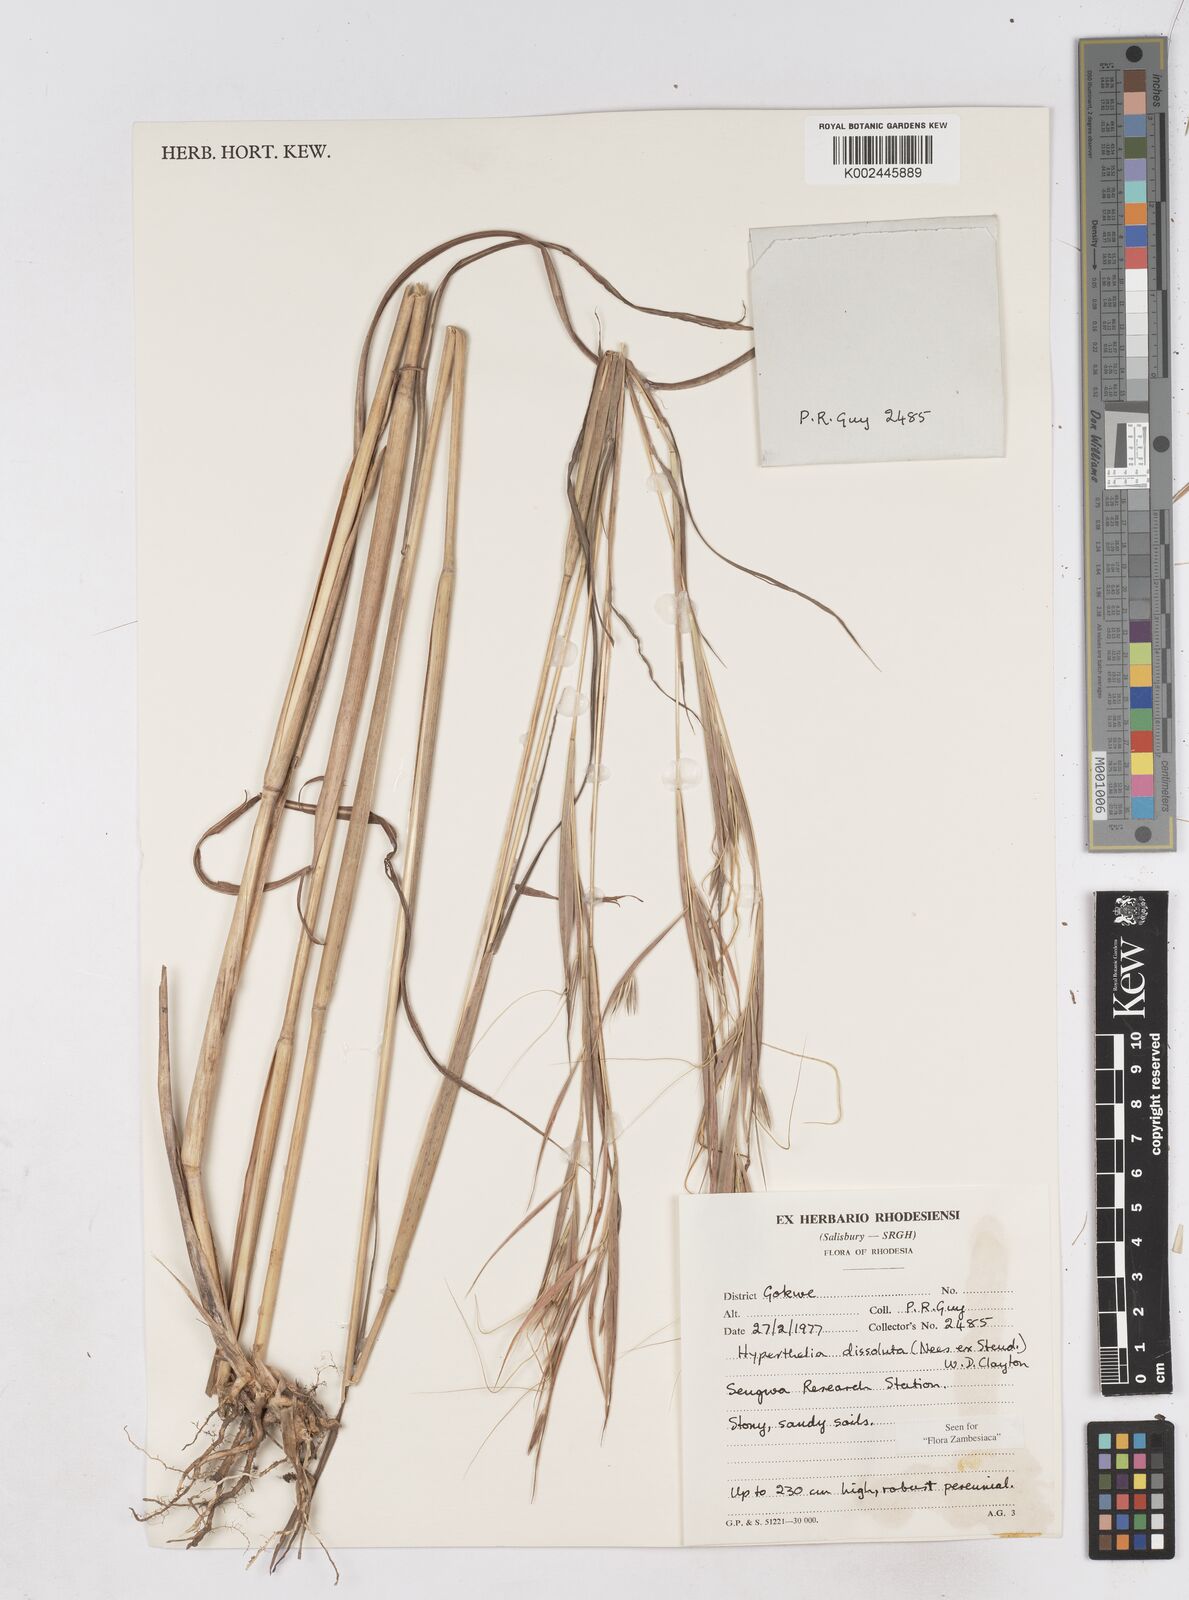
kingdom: Plantae
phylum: Tracheophyta
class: Liliopsida
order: Poales
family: Poaceae
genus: Hyperthelia
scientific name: Hyperthelia dissoluta
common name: Yellow thatching grass
